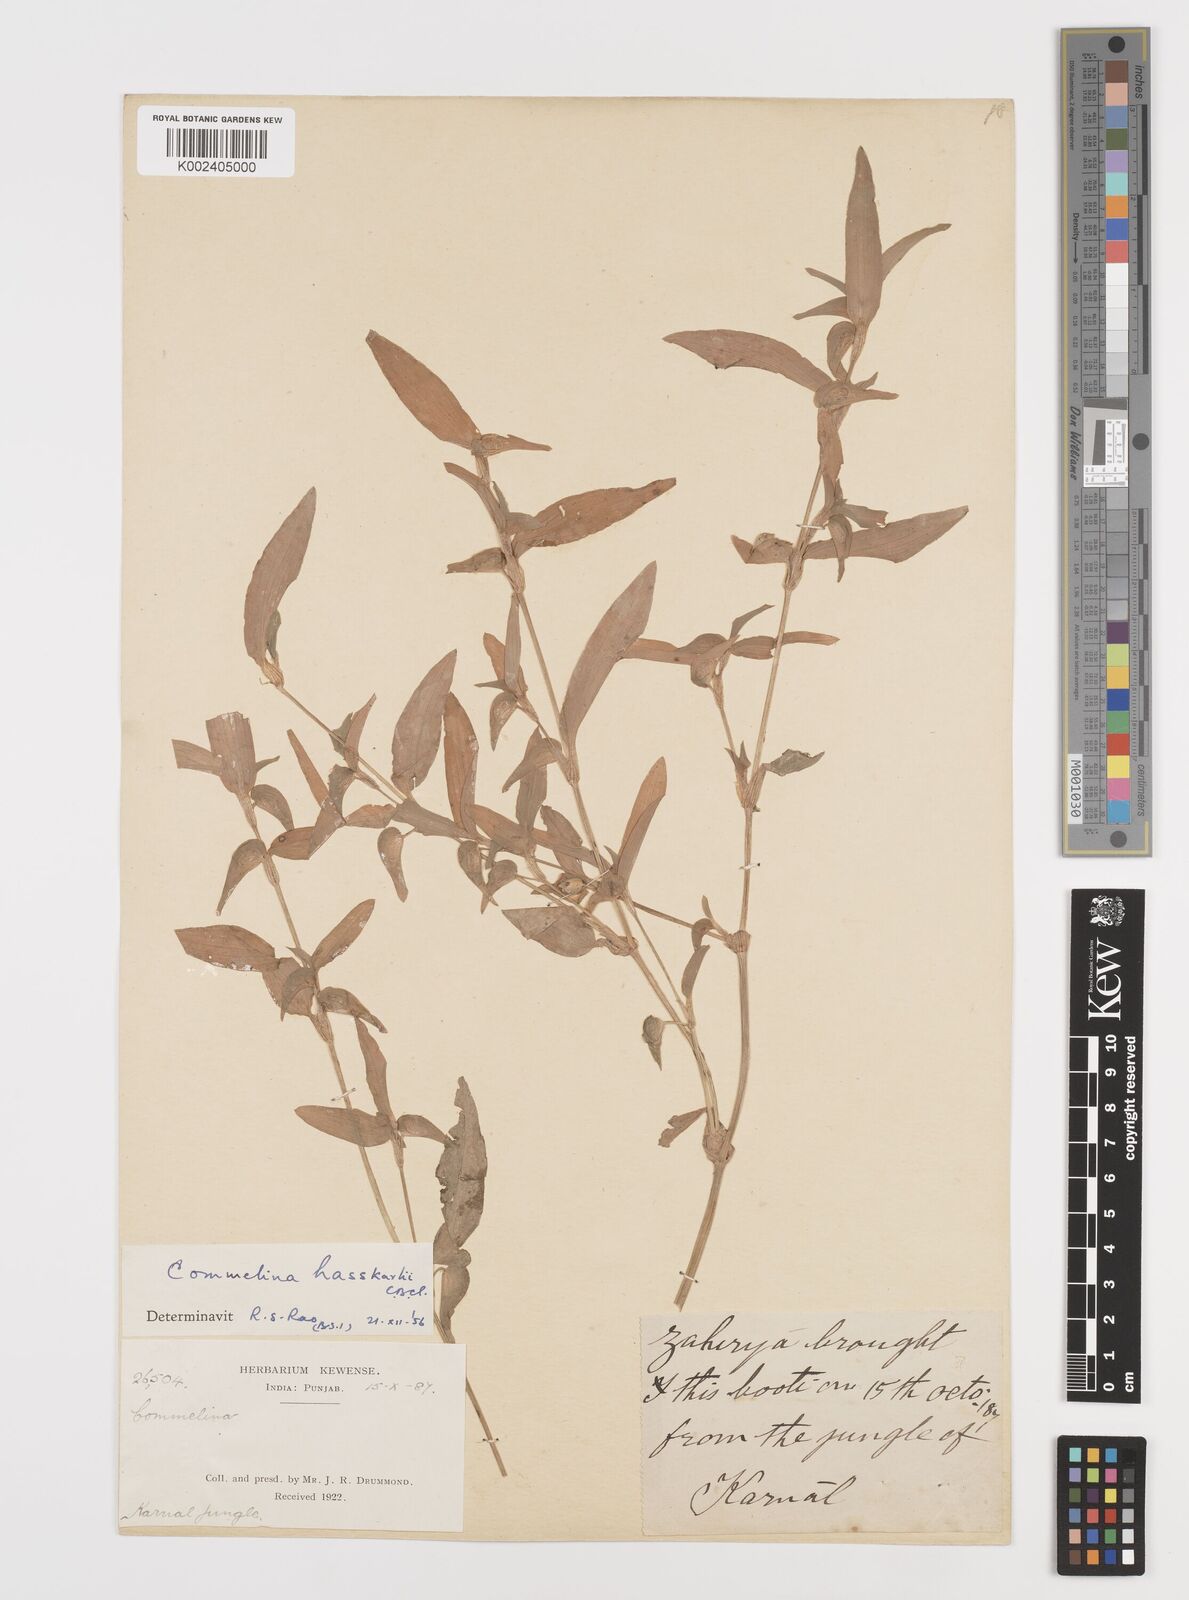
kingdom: Plantae
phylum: Tracheophyta
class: Liliopsida
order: Commelinales
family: Commelinaceae
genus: Commelina
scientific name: Commelina caroliniana
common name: Carolina dayflower
